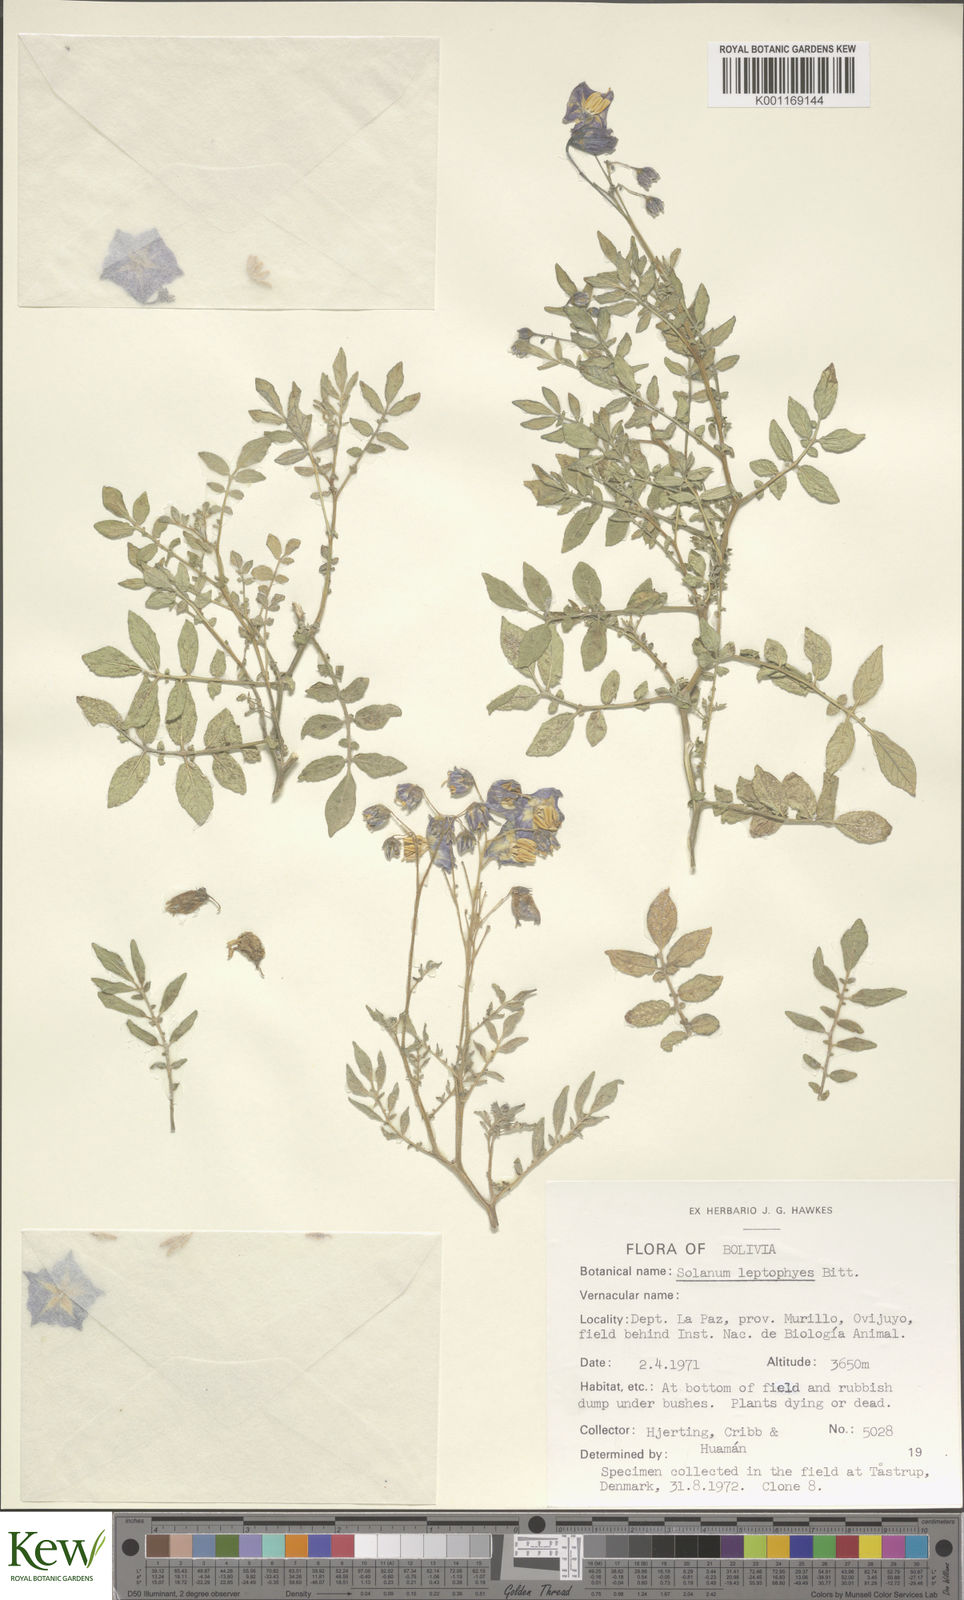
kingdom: Plantae
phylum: Tracheophyta
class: Magnoliopsida
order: Solanales
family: Solanaceae
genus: Solanum
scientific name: Solanum brevicaule
